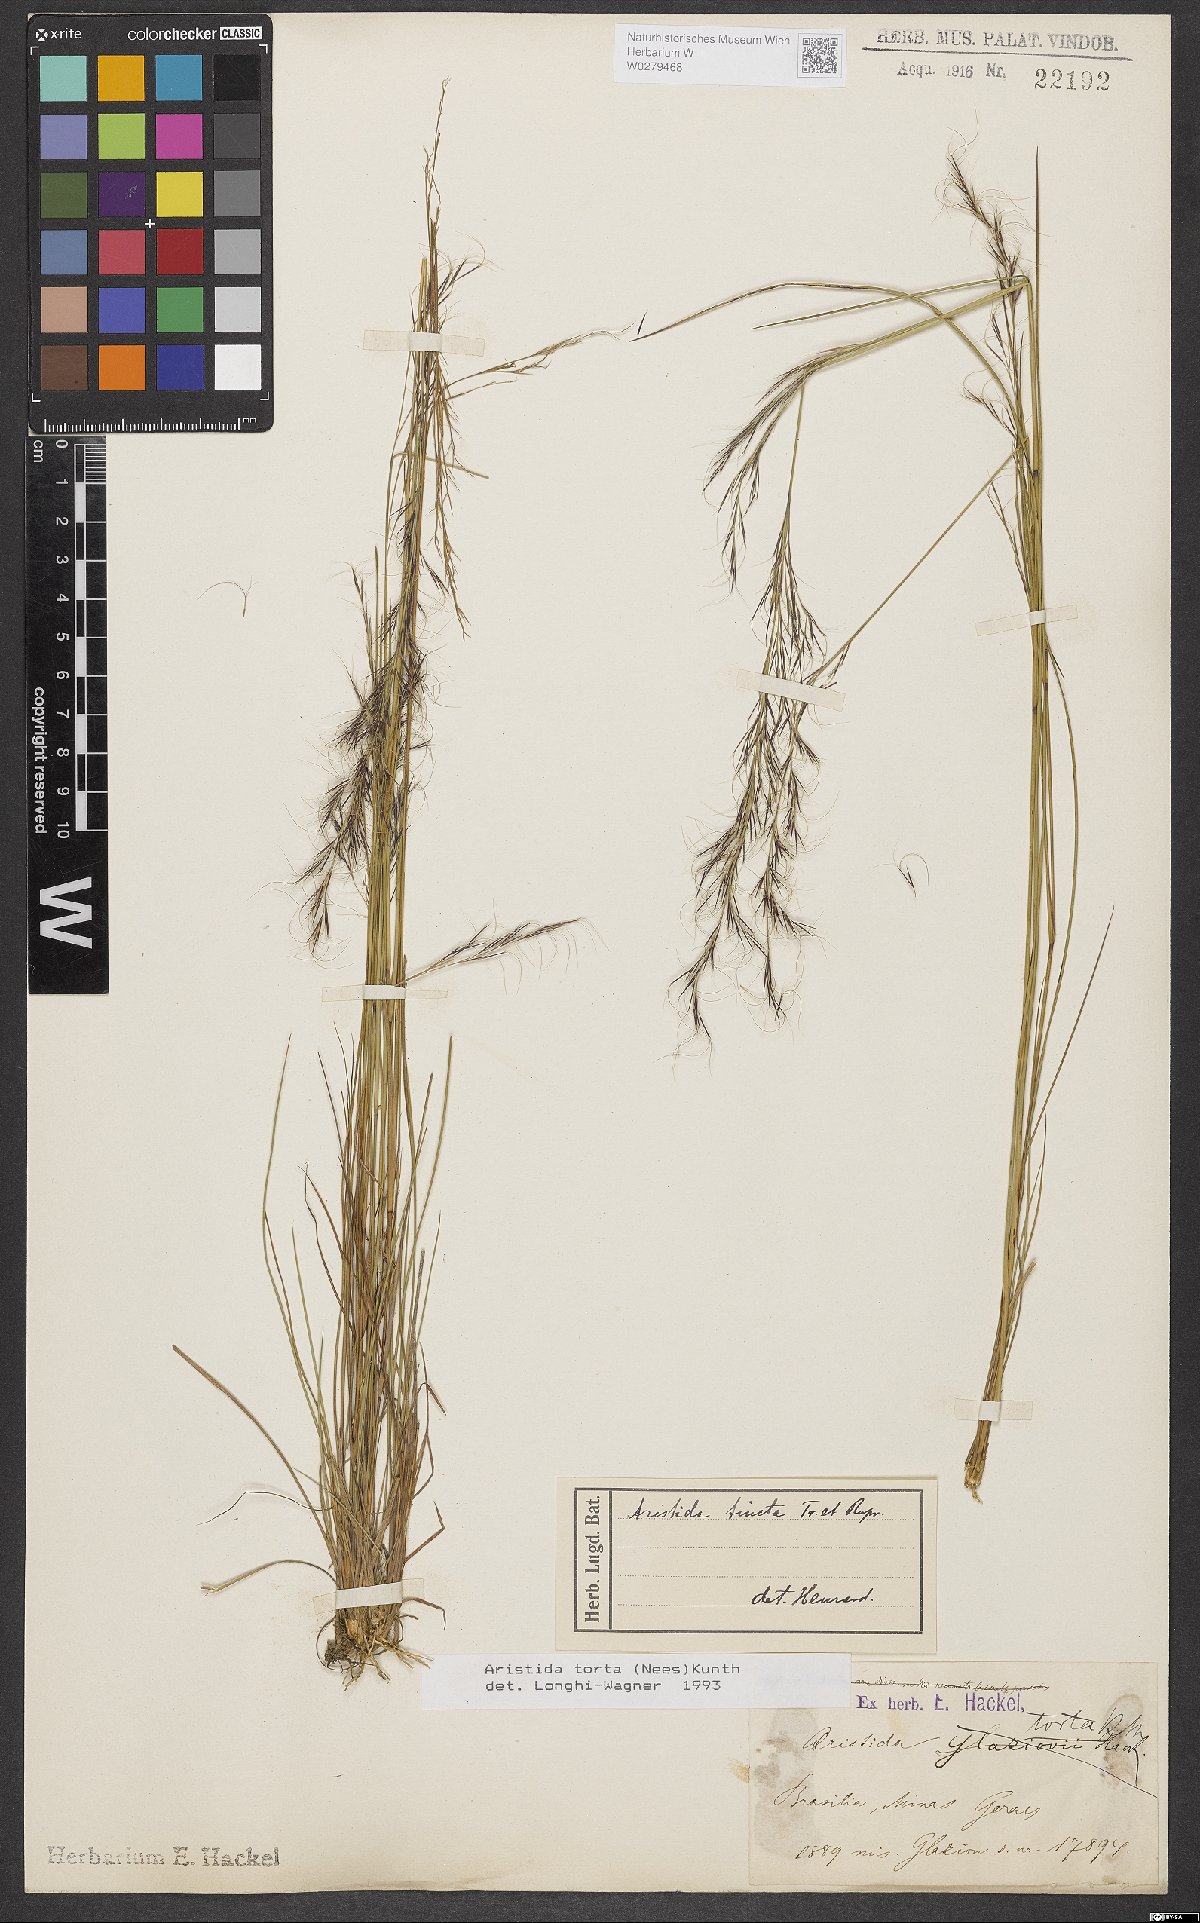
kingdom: Plantae
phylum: Tracheophyta
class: Liliopsida
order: Poales
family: Poaceae
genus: Aristida
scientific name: Aristida torta
